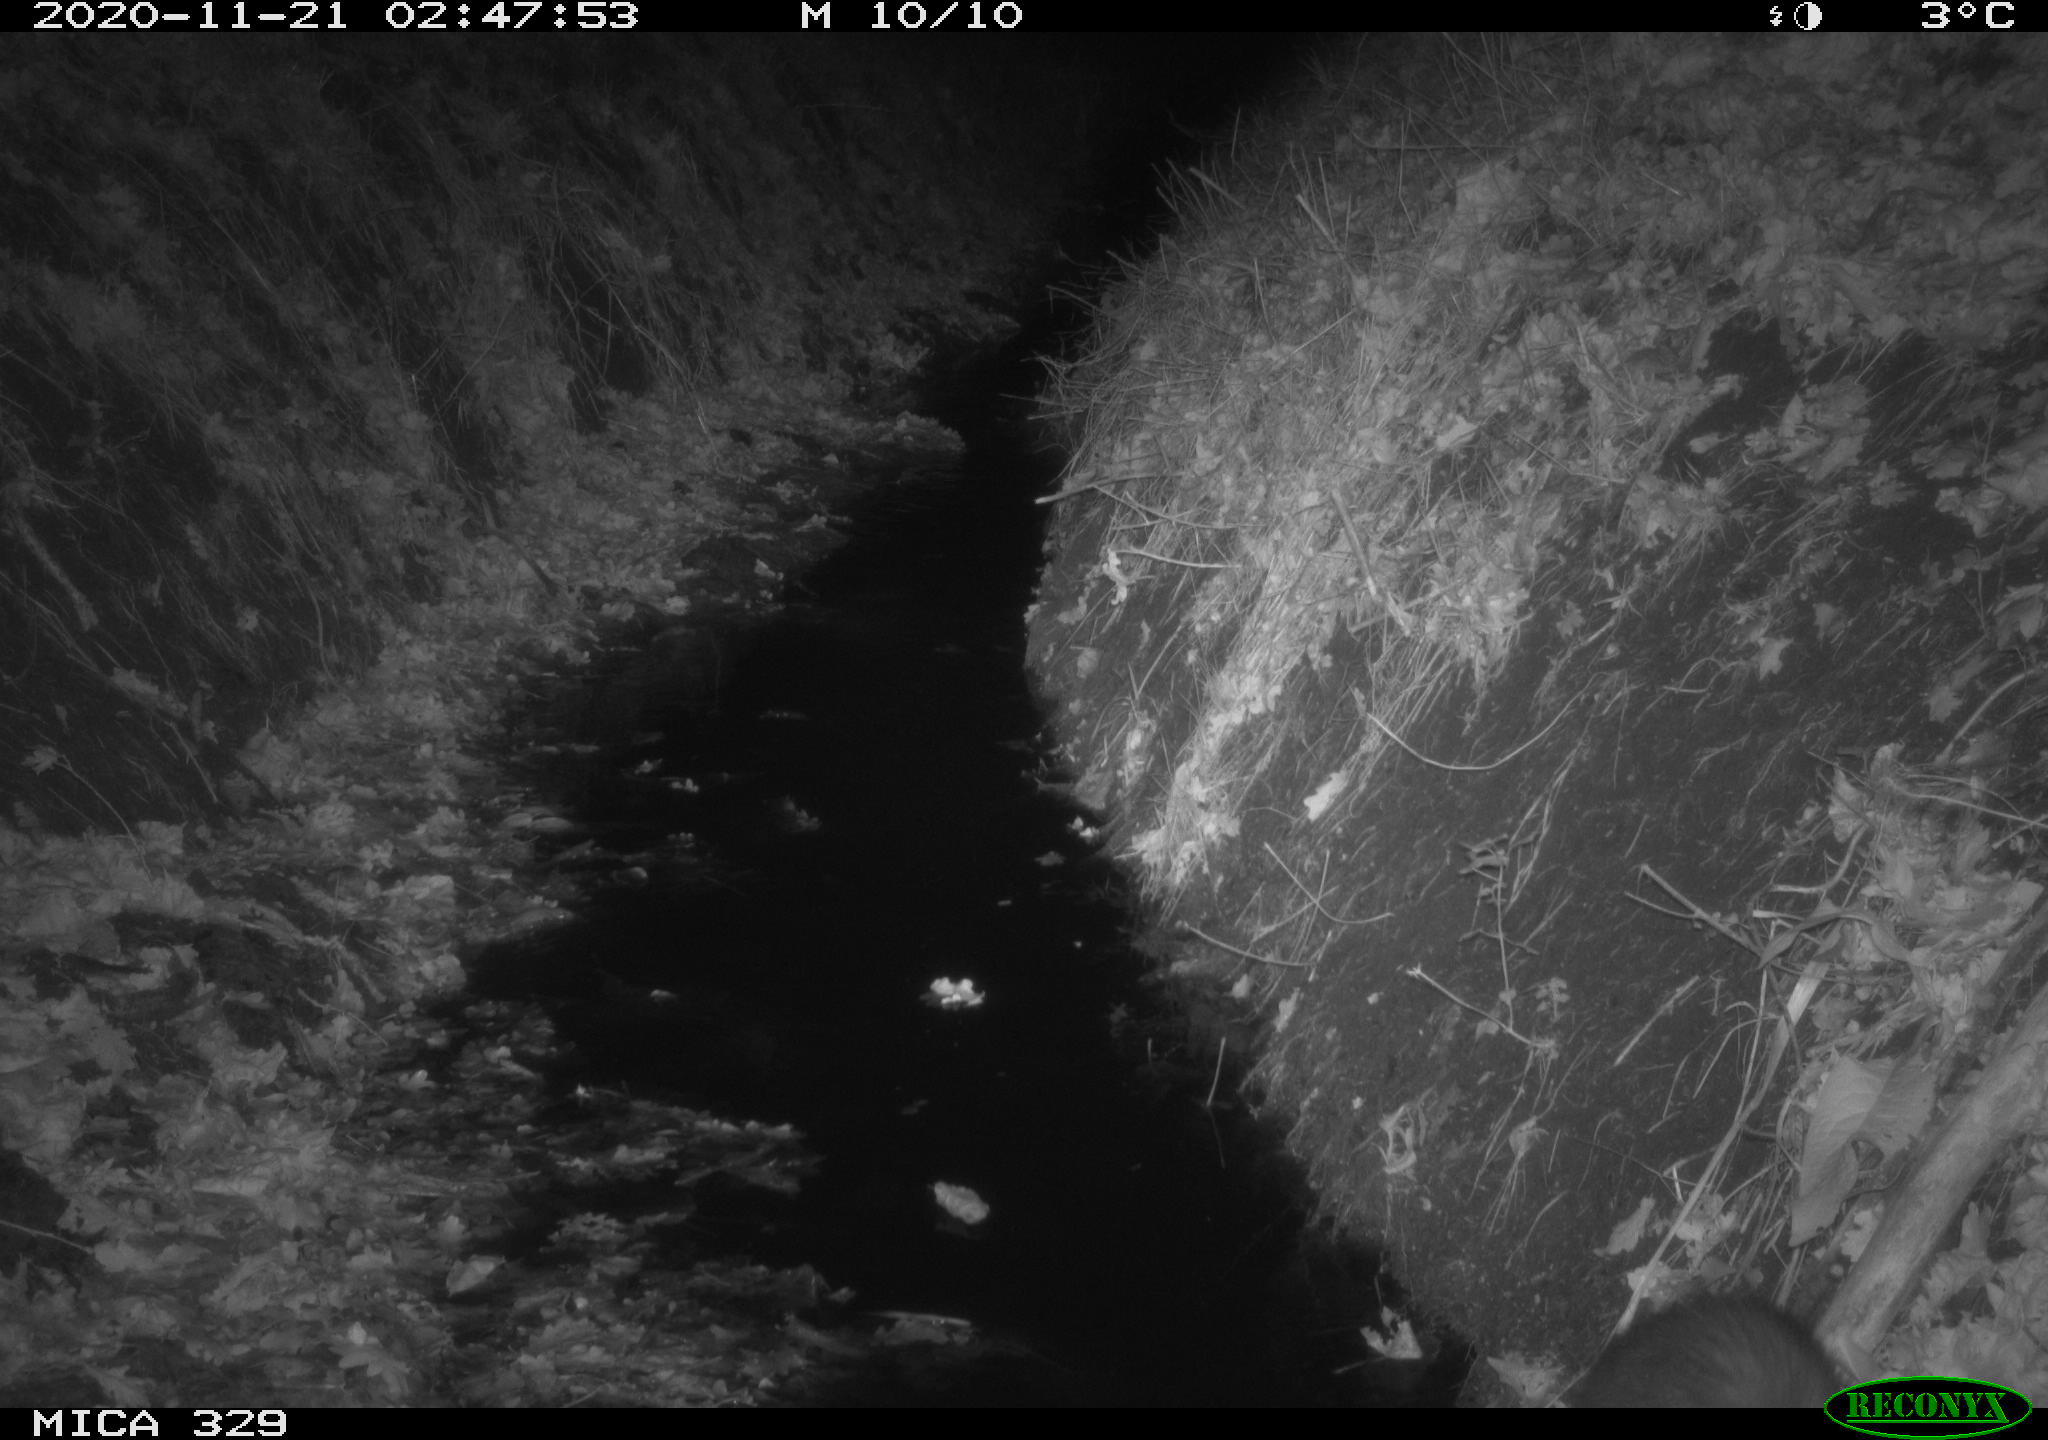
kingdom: Animalia
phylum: Chordata
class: Mammalia
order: Carnivora
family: Mustelidae
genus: Martes
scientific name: Martes foina
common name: Beech marten
